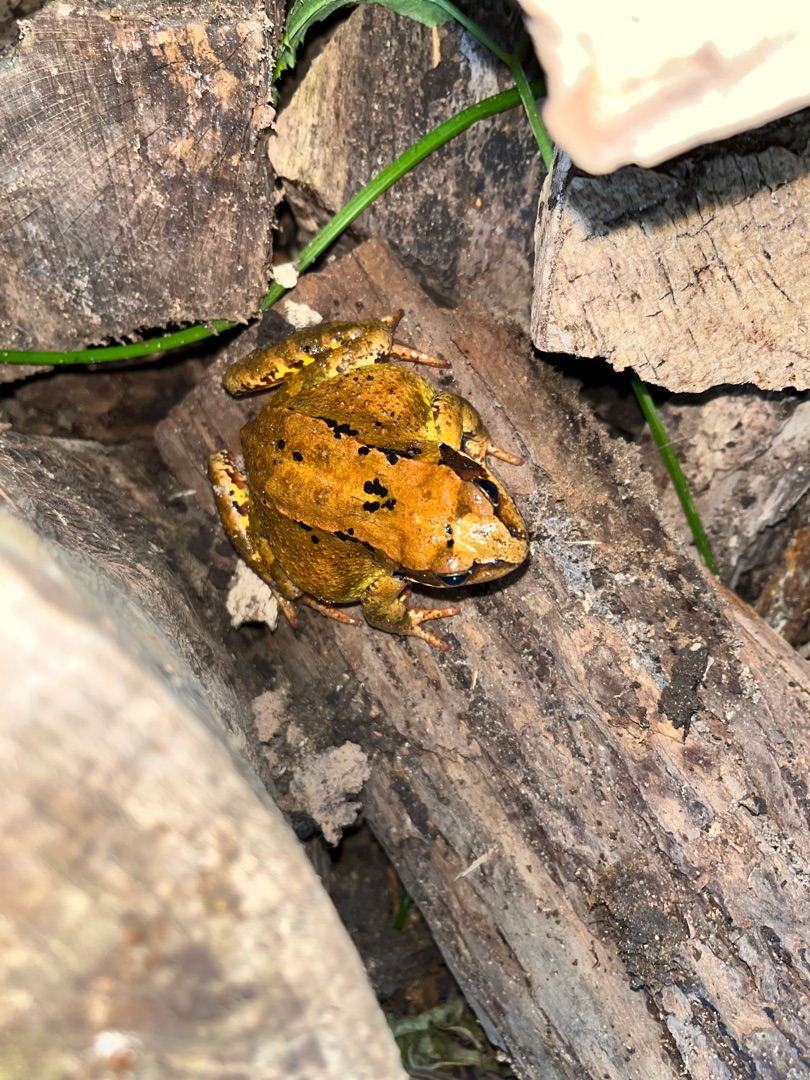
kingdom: Animalia
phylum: Chordata
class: Amphibia
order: Anura
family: Ranidae
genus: Rana
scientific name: Rana temporaria
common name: Butsnudet frø
